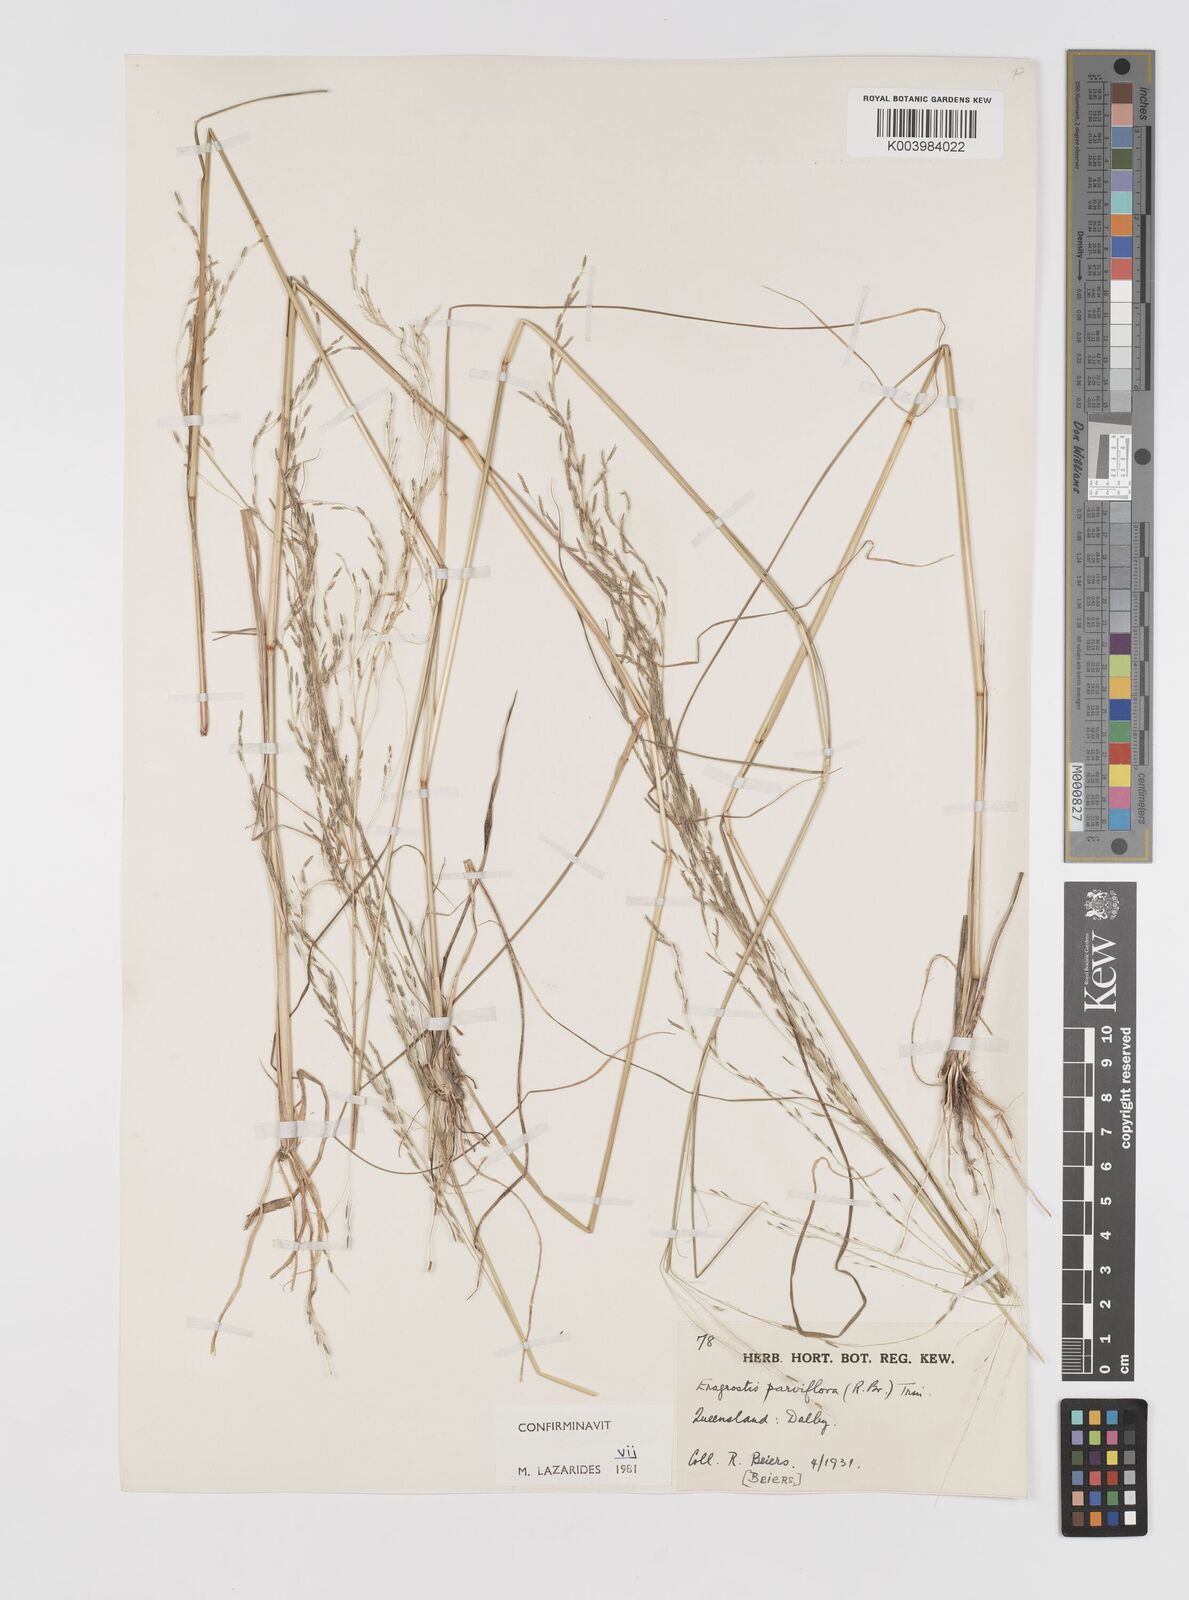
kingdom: Plantae
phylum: Tracheophyta
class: Liliopsida
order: Poales
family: Poaceae
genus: Eragrostis
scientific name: Eragrostis parviflora
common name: Weeping love-grass
